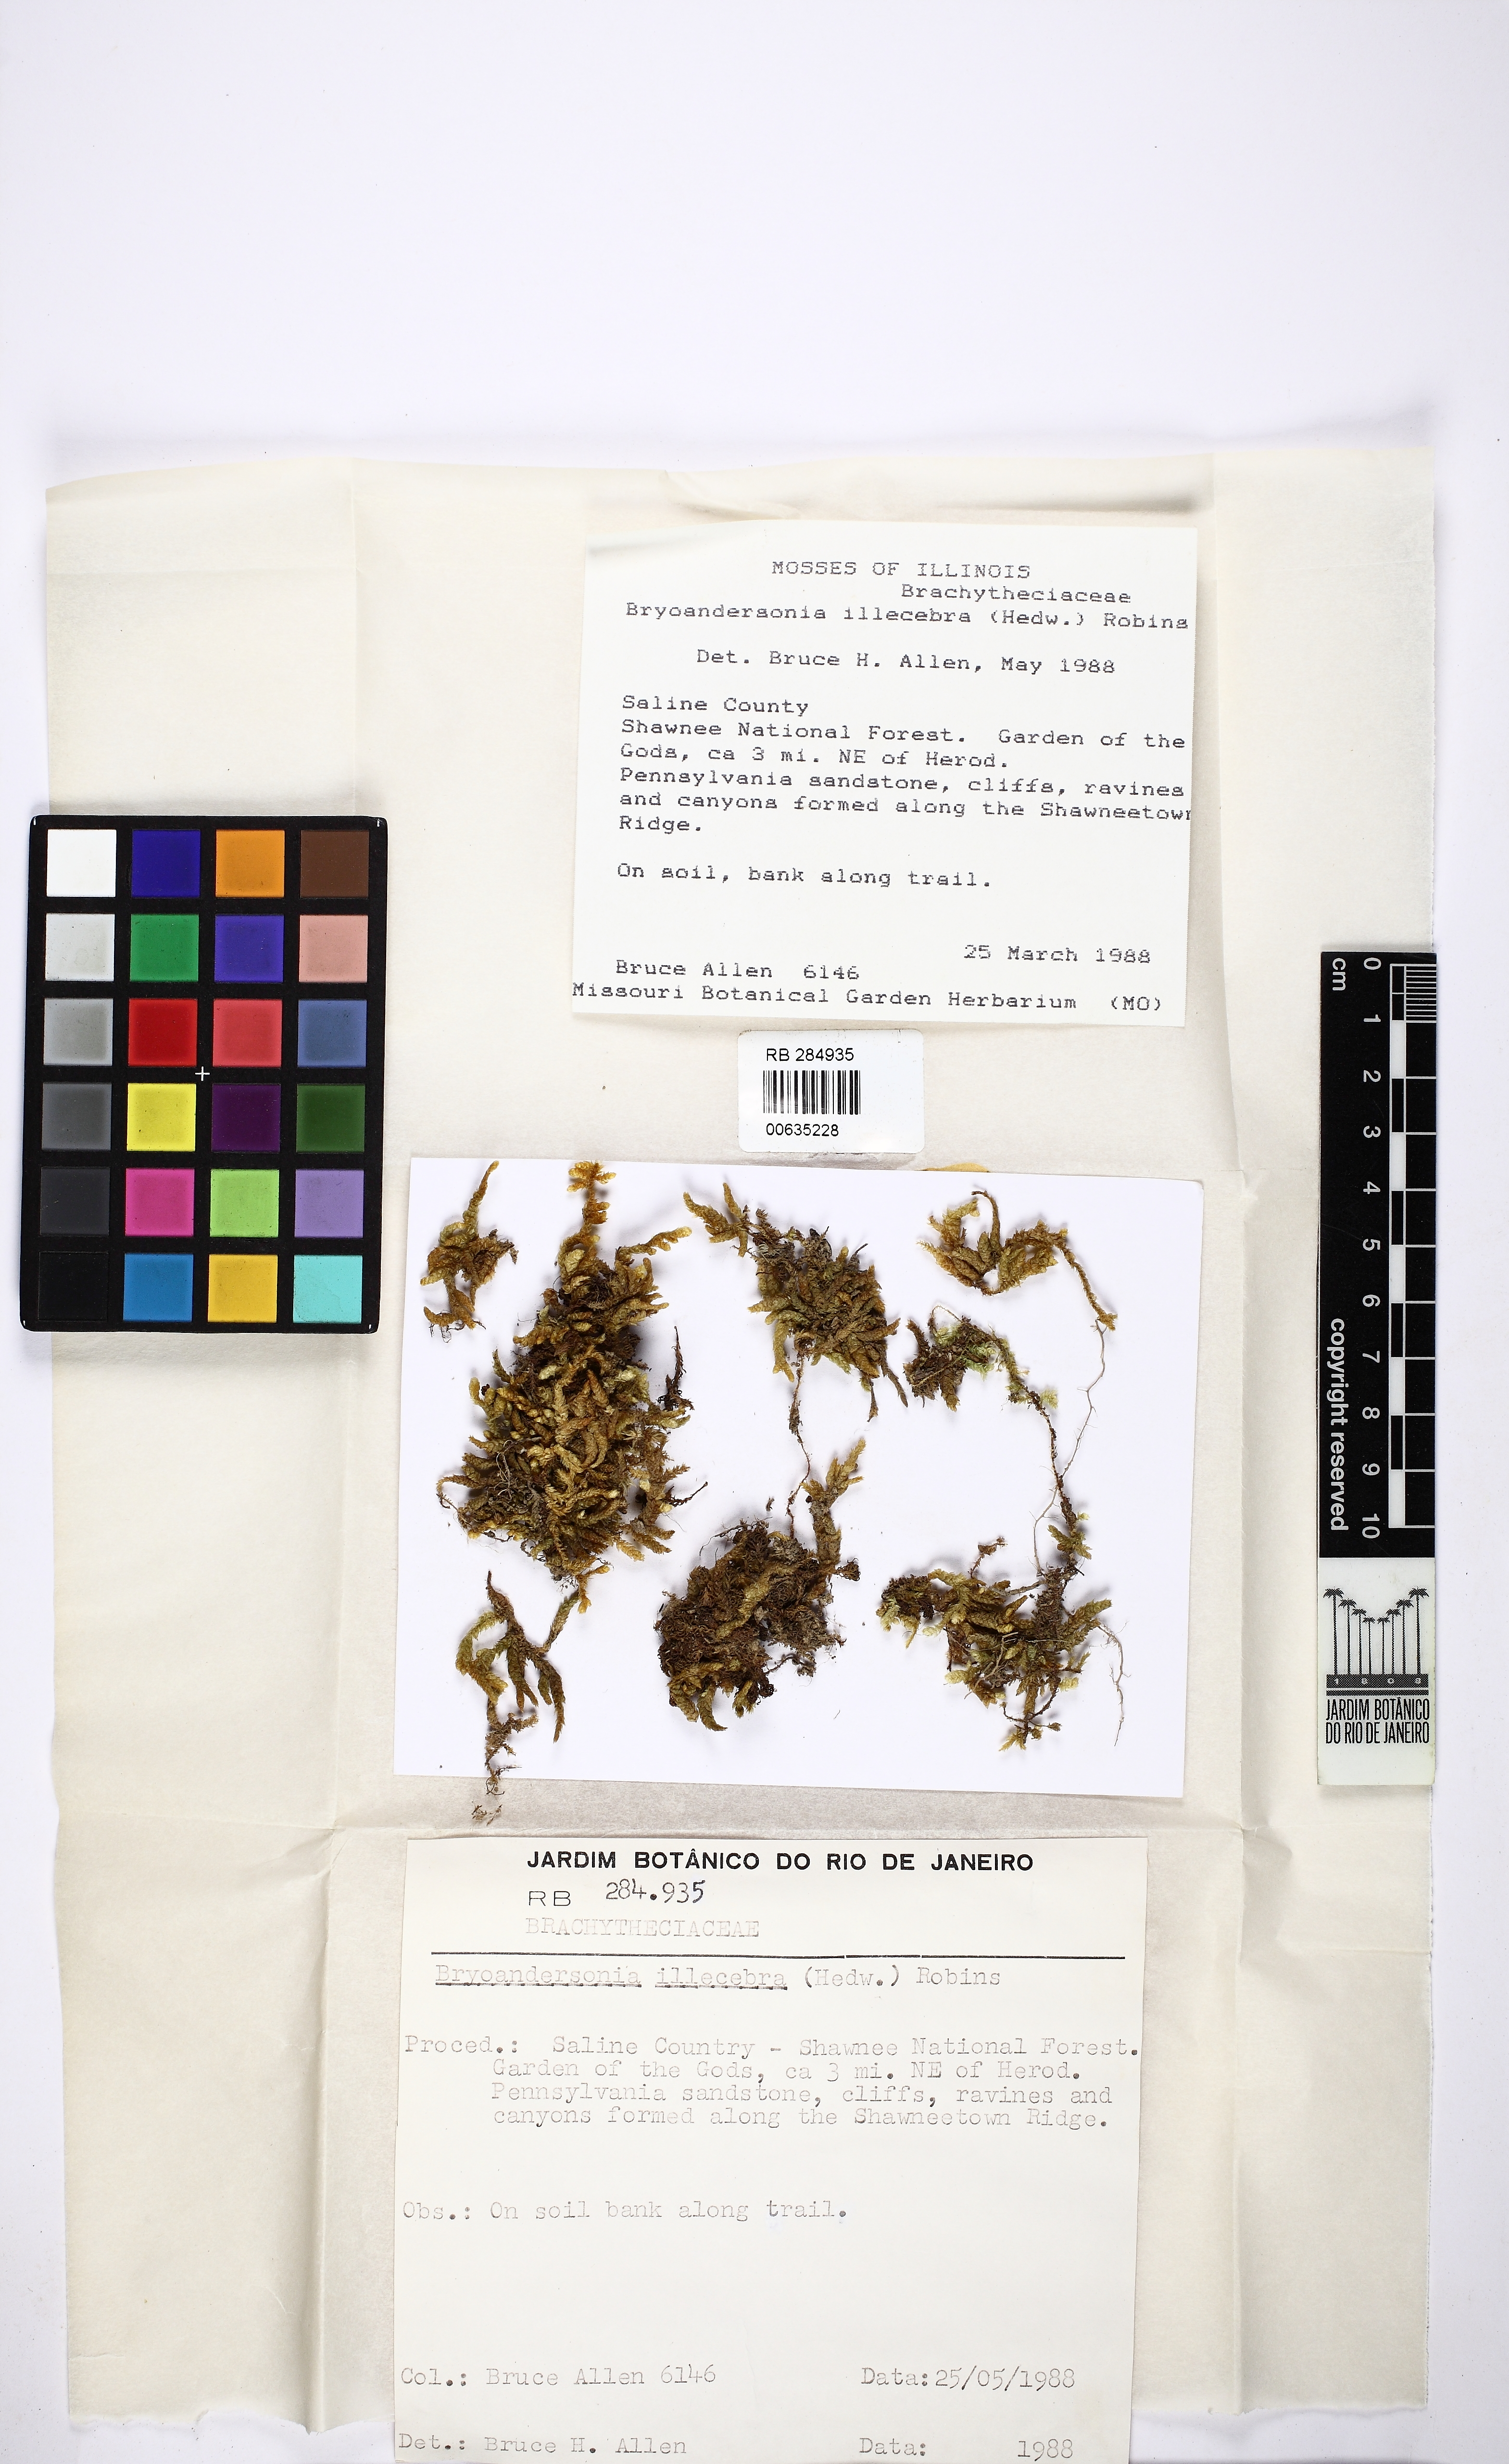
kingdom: Plantae
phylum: Bryophyta
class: Bryopsida
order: Hypnales
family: Brachytheciaceae
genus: Bryoandersonia
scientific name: Bryoandersonia illecebra
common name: Spoon-leaved moss
